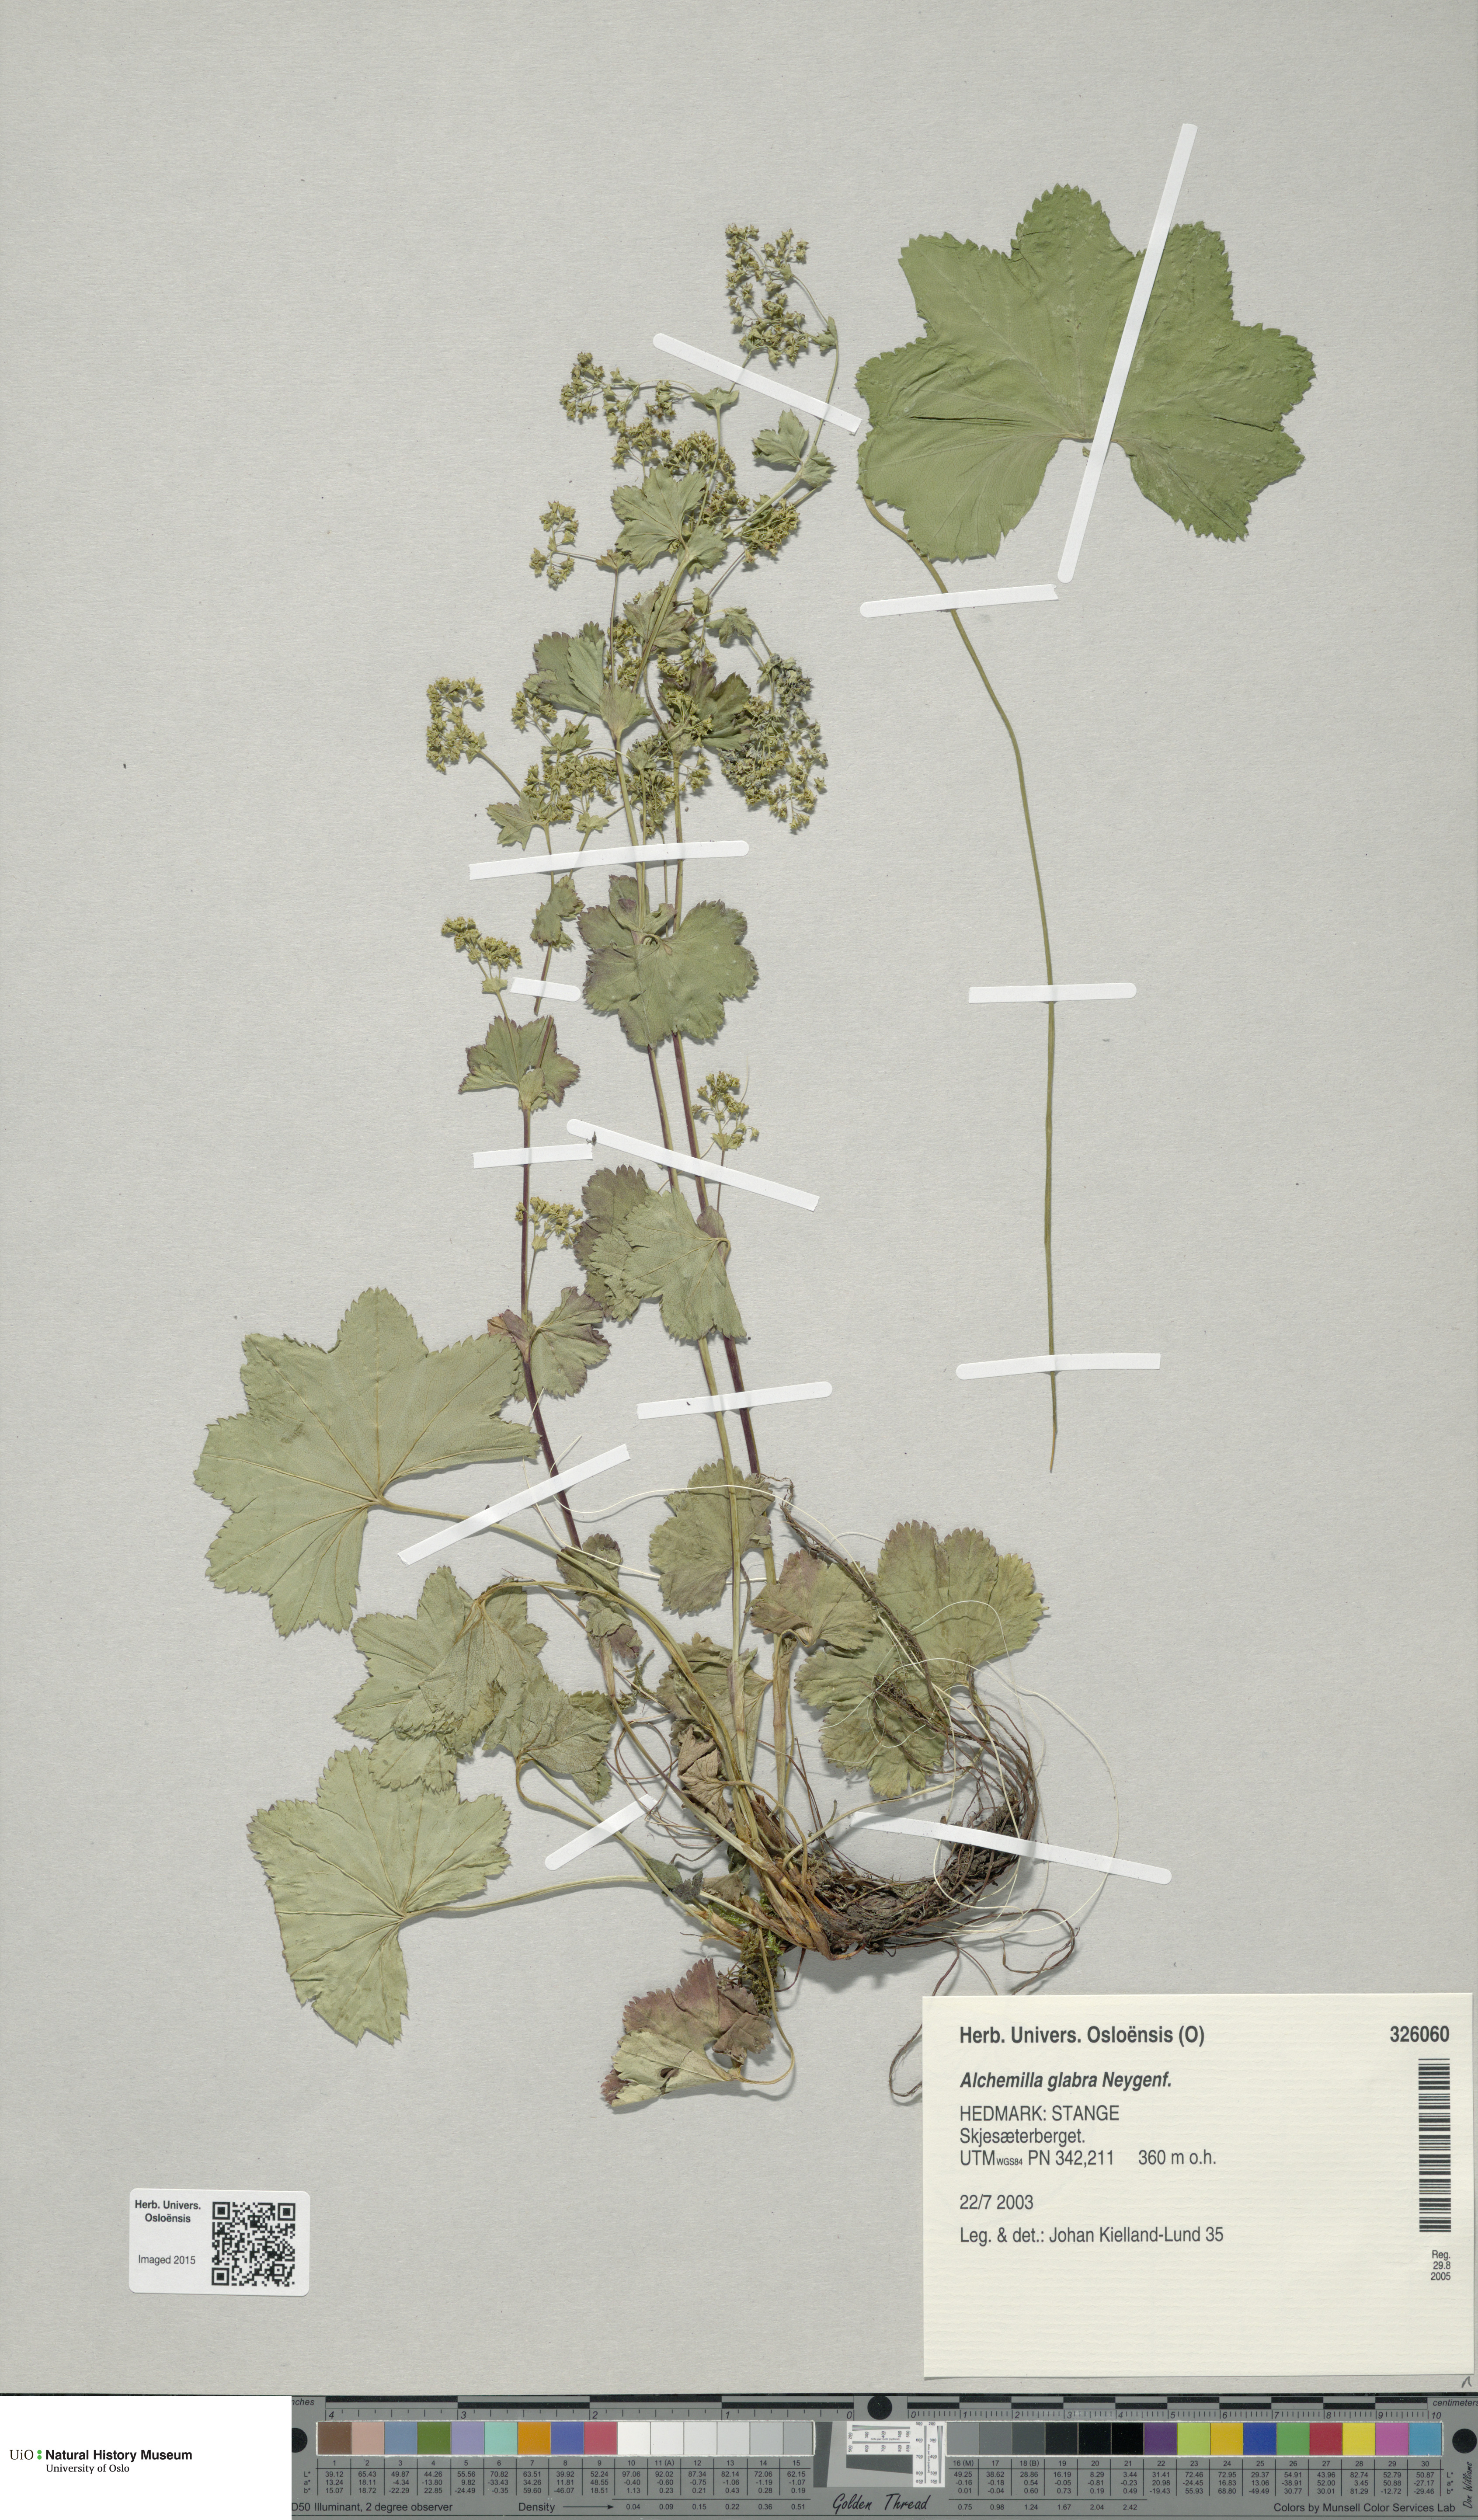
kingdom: Plantae
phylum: Tracheophyta
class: Magnoliopsida
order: Rosales
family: Rosaceae
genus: Alchemilla
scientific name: Alchemilla glabra
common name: Smooth lady's-mantle
